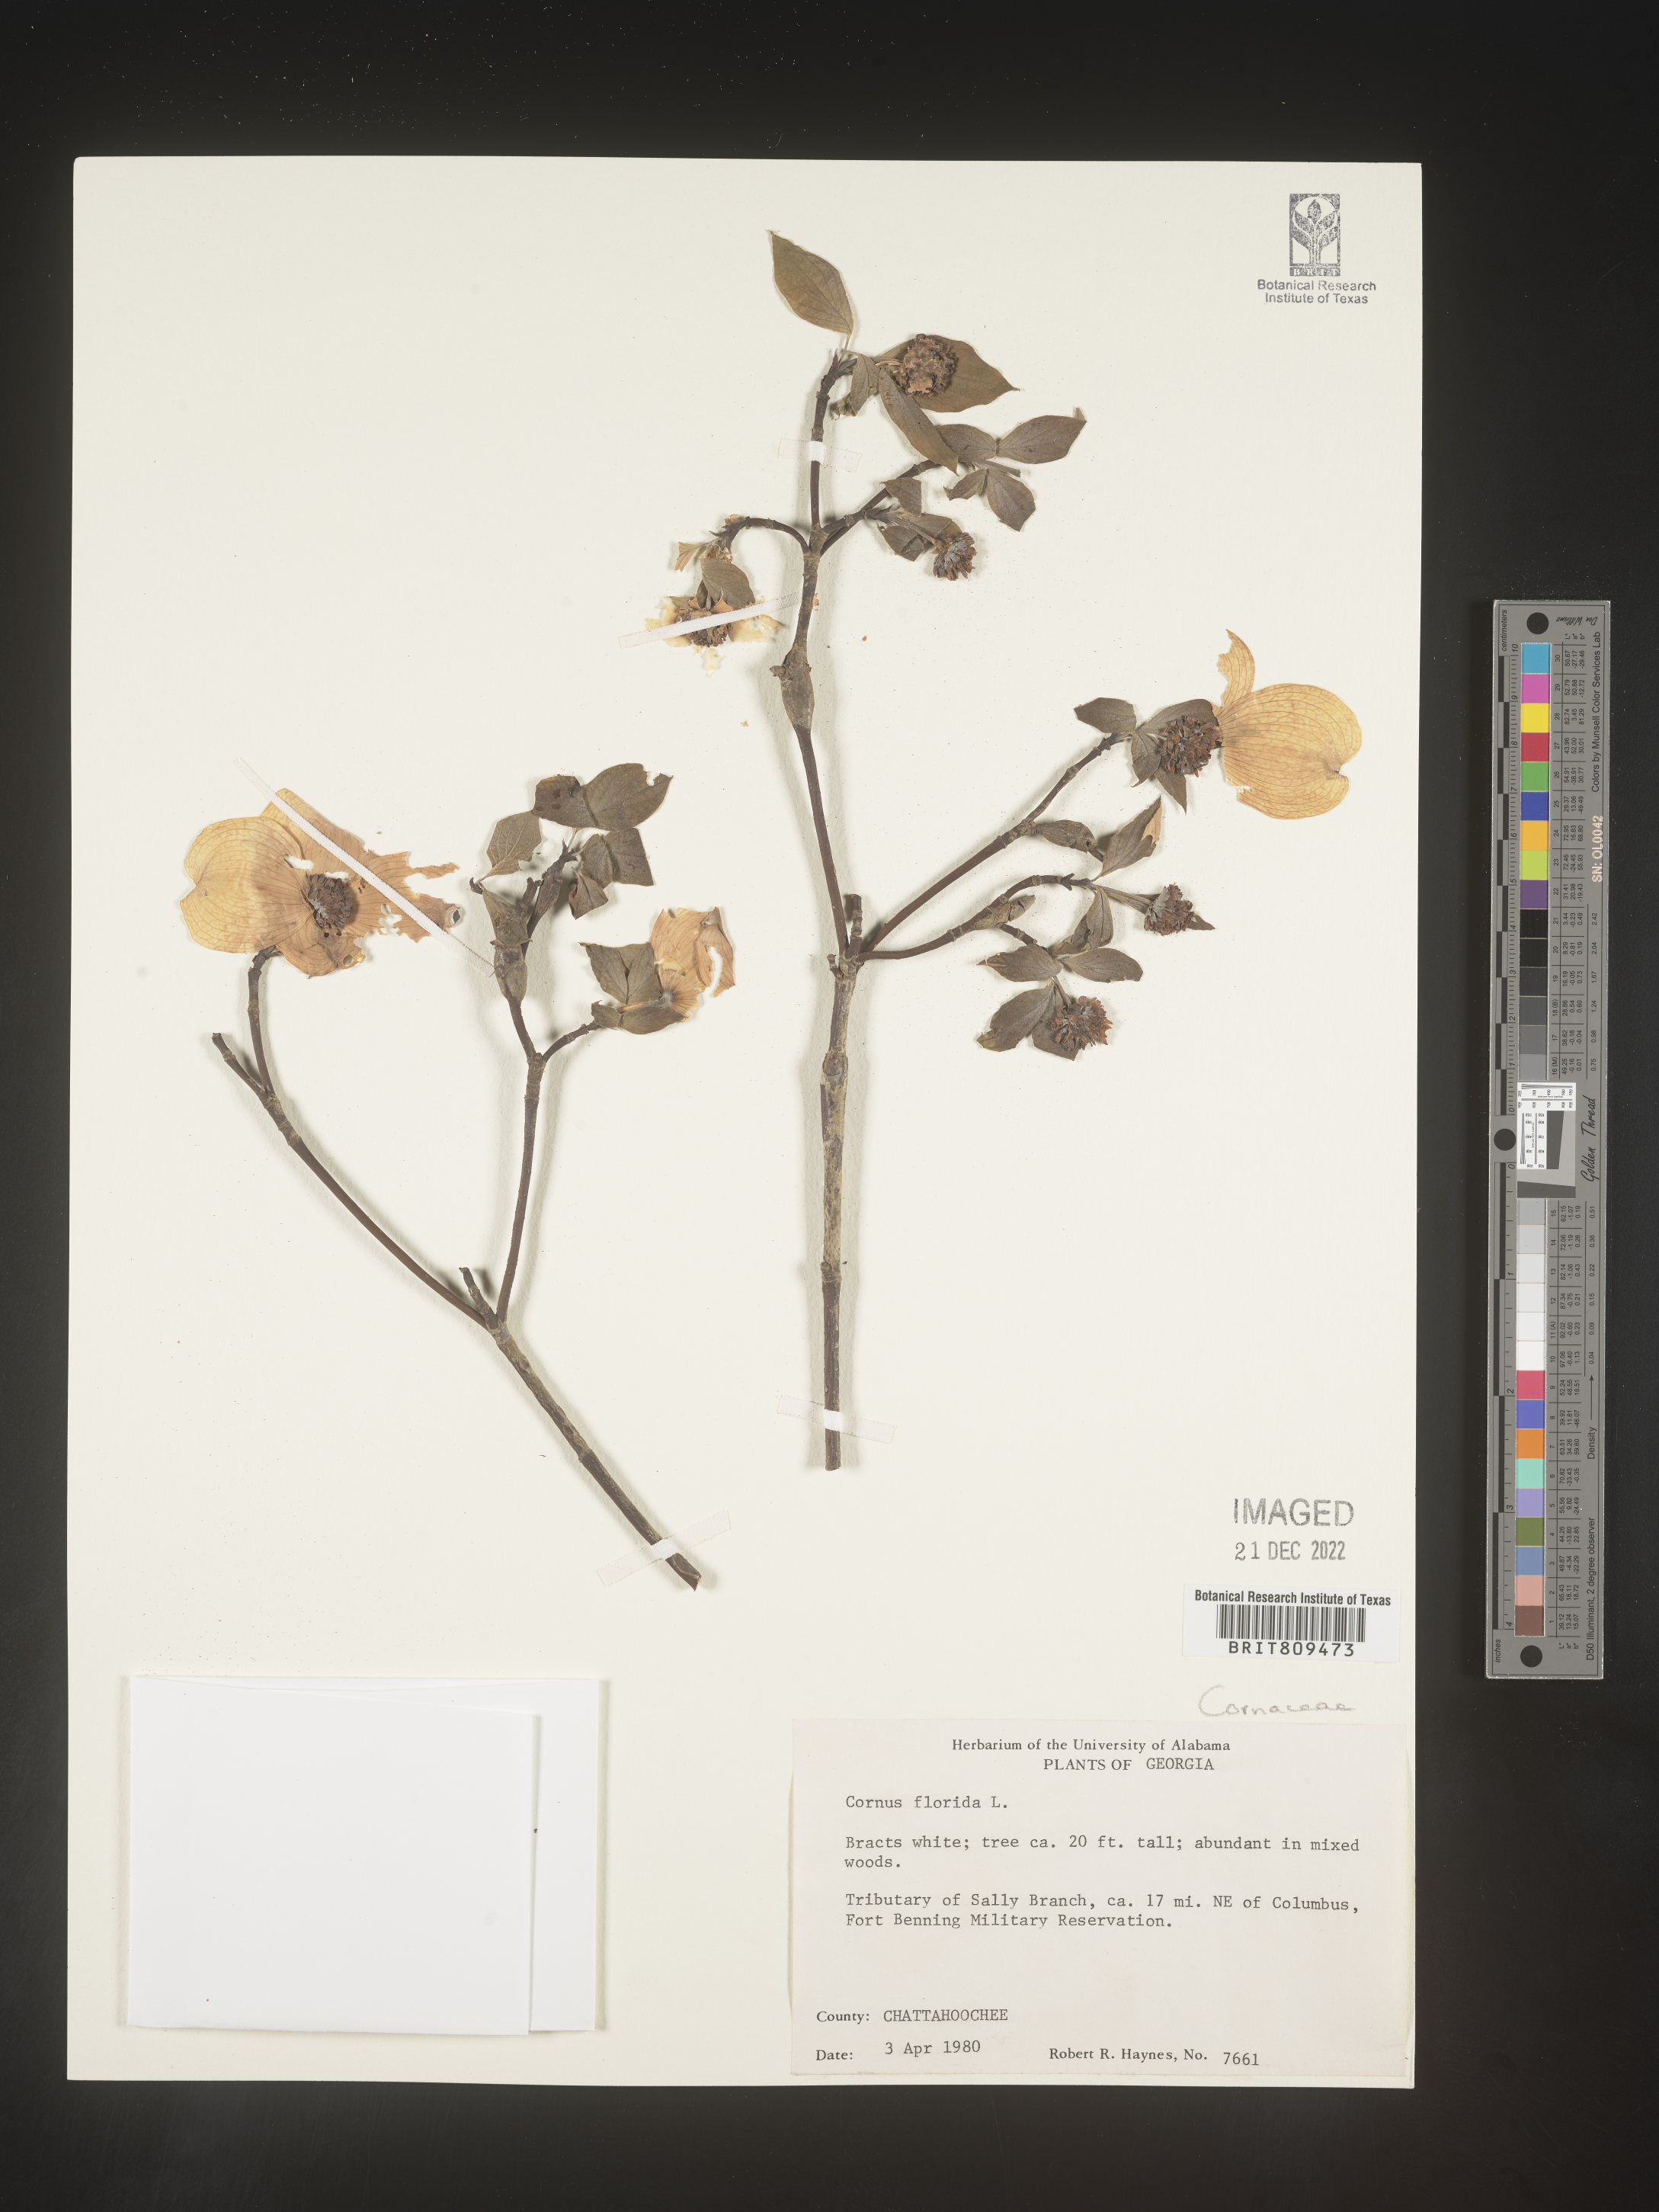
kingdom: Plantae
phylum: Tracheophyta
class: Magnoliopsida
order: Cornales
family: Cornaceae
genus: Cornus
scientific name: Cornus florida
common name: Flowering dogwood
